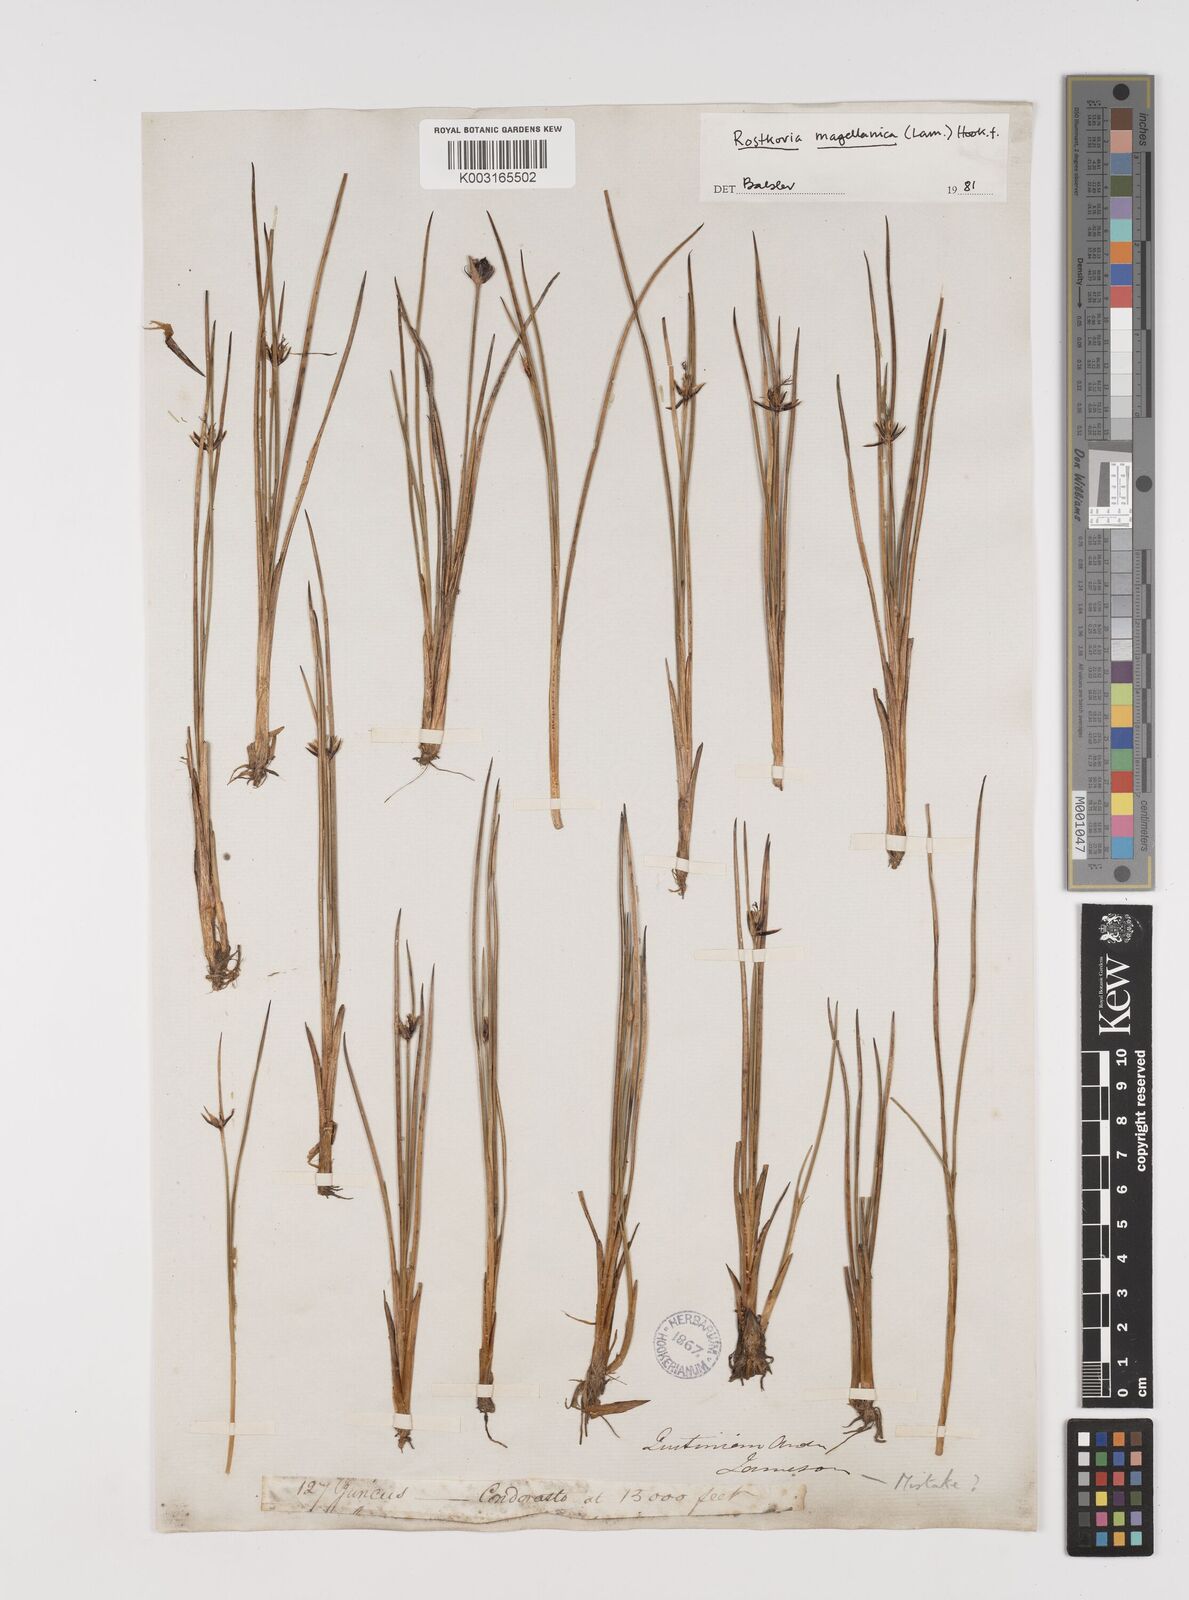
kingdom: Plantae
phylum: Tracheophyta
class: Liliopsida
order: Poales
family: Juncaceae
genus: Rostkovia
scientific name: Rostkovia magellanica
